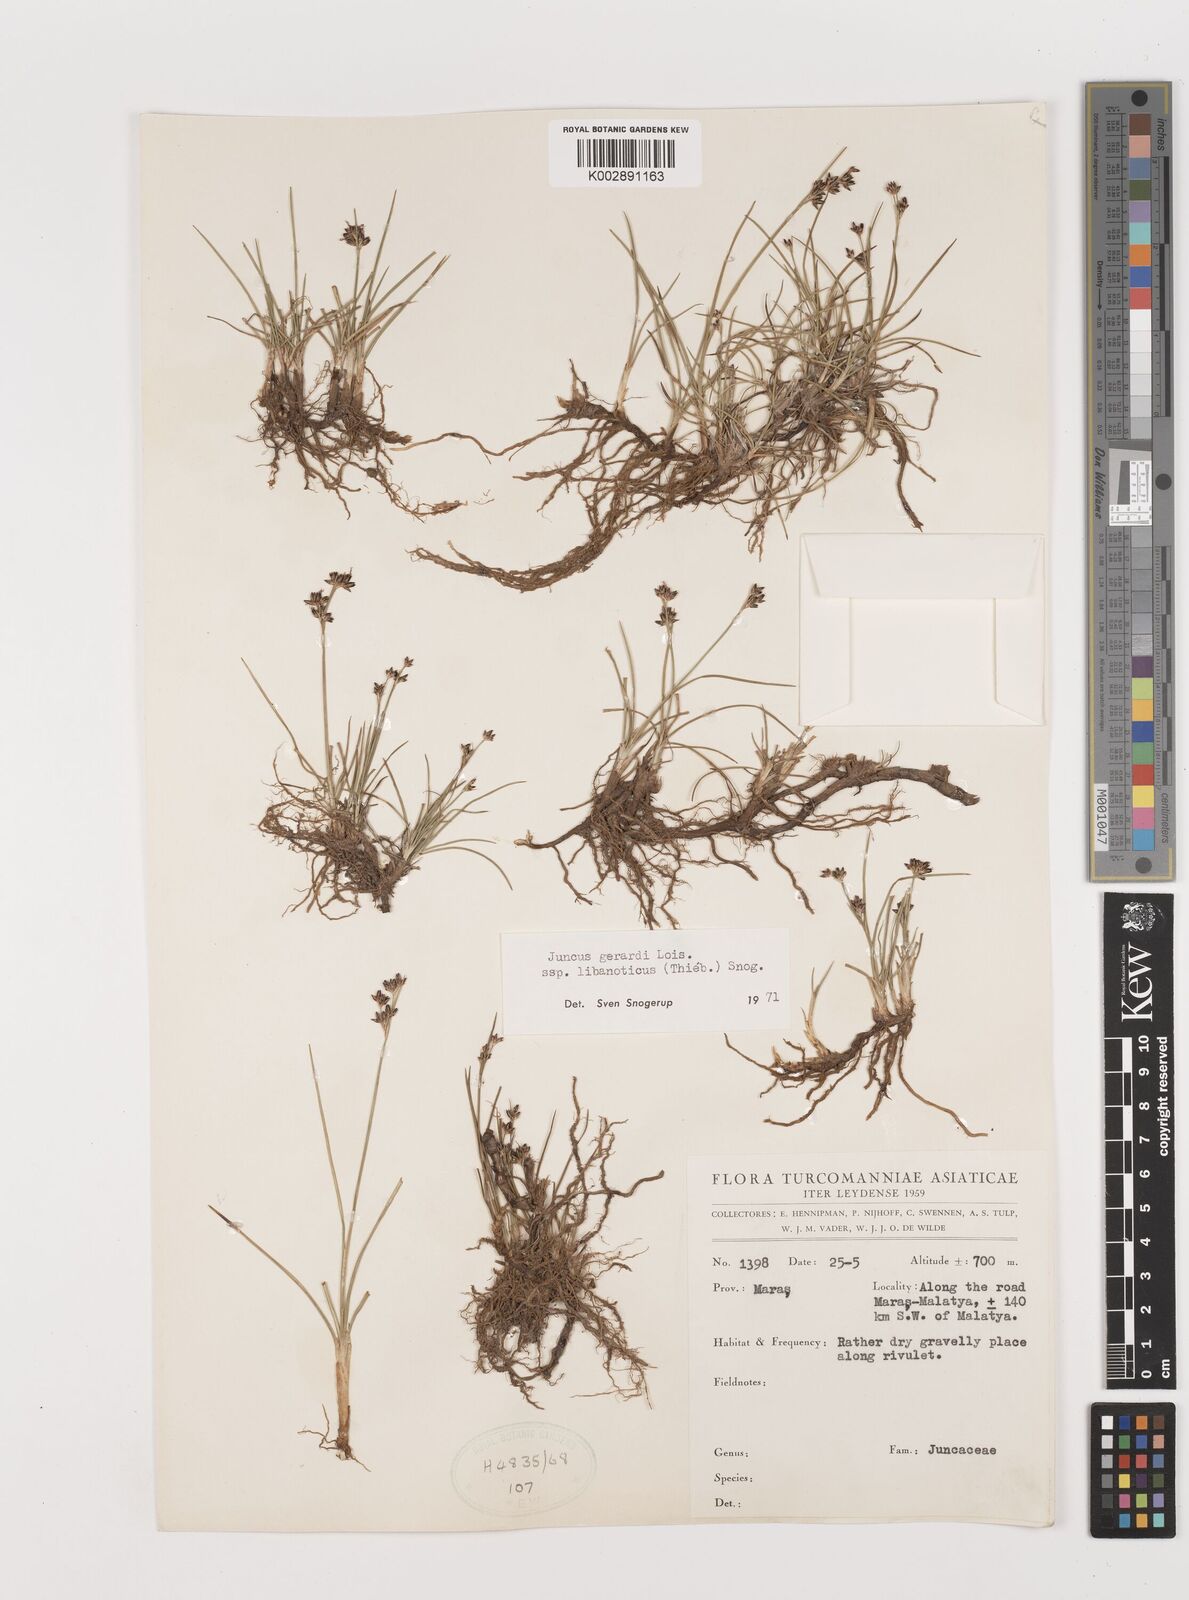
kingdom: Plantae
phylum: Tracheophyta
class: Liliopsida
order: Poales
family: Juncaceae
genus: Juncus
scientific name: Juncus persicus
